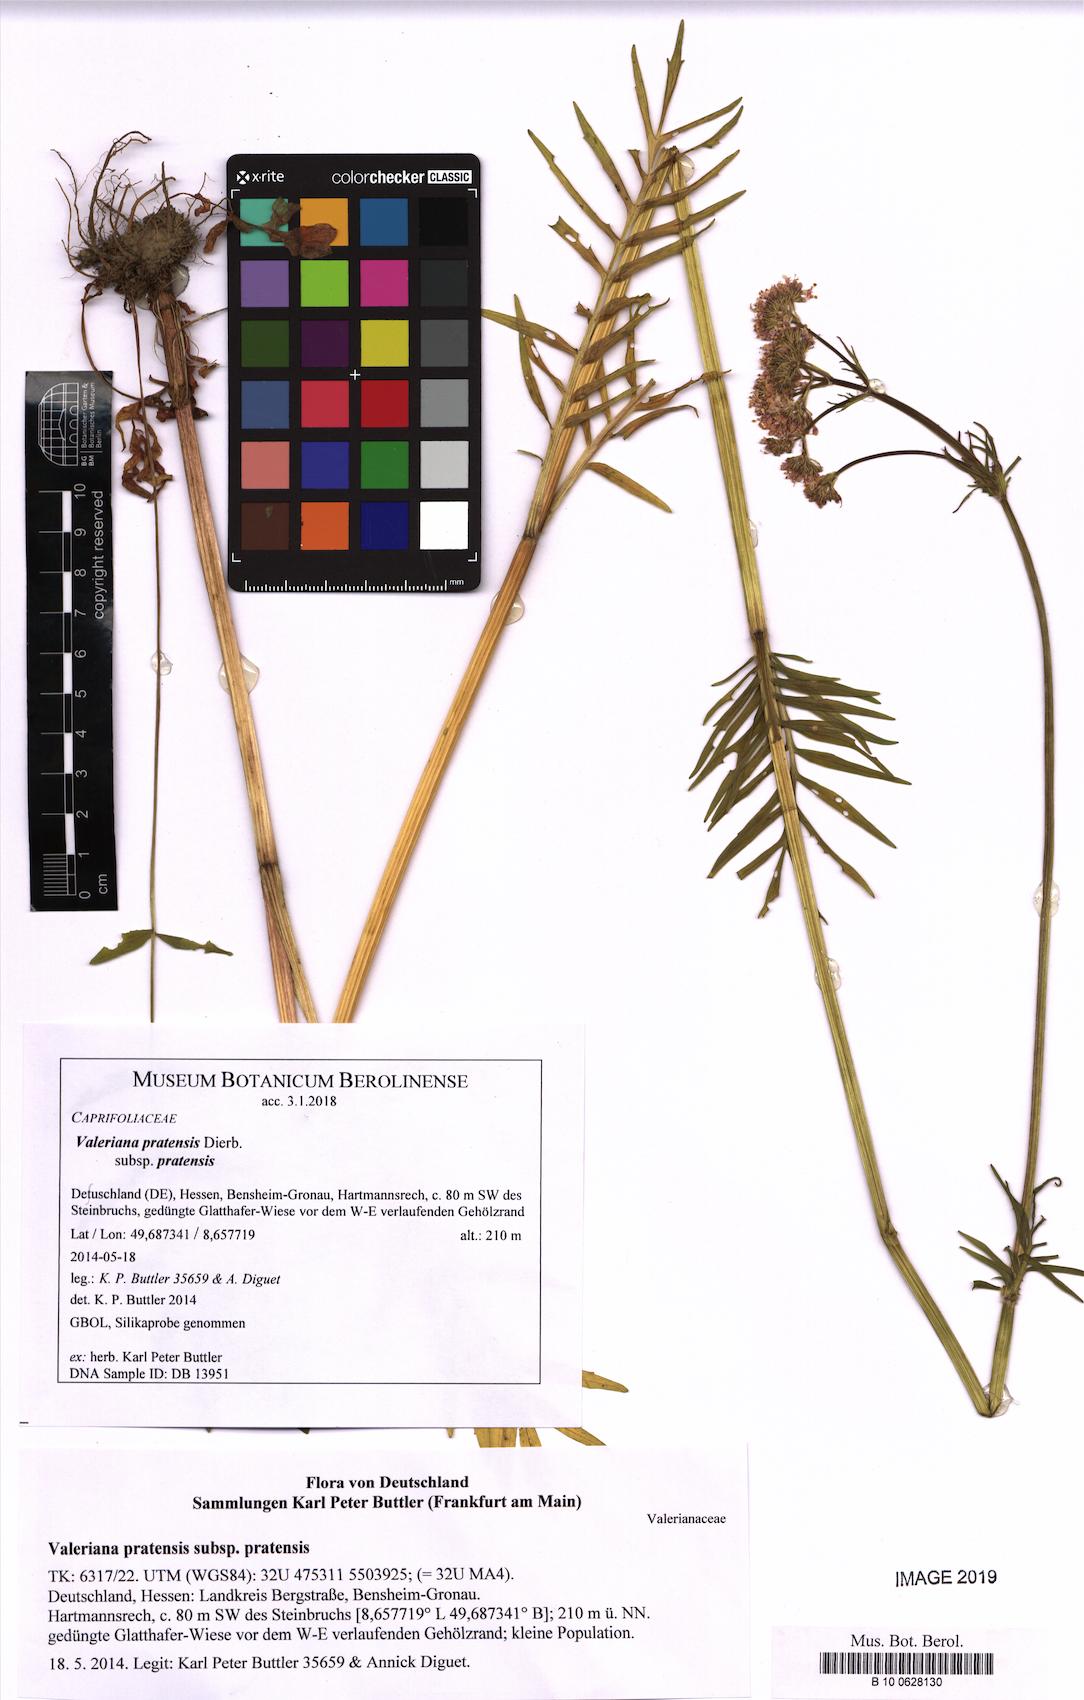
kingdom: Plantae
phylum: Tracheophyta
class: Magnoliopsida
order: Dipsacales
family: Caprifoliaceae
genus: Valeriana
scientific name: Valeriana pratensis
